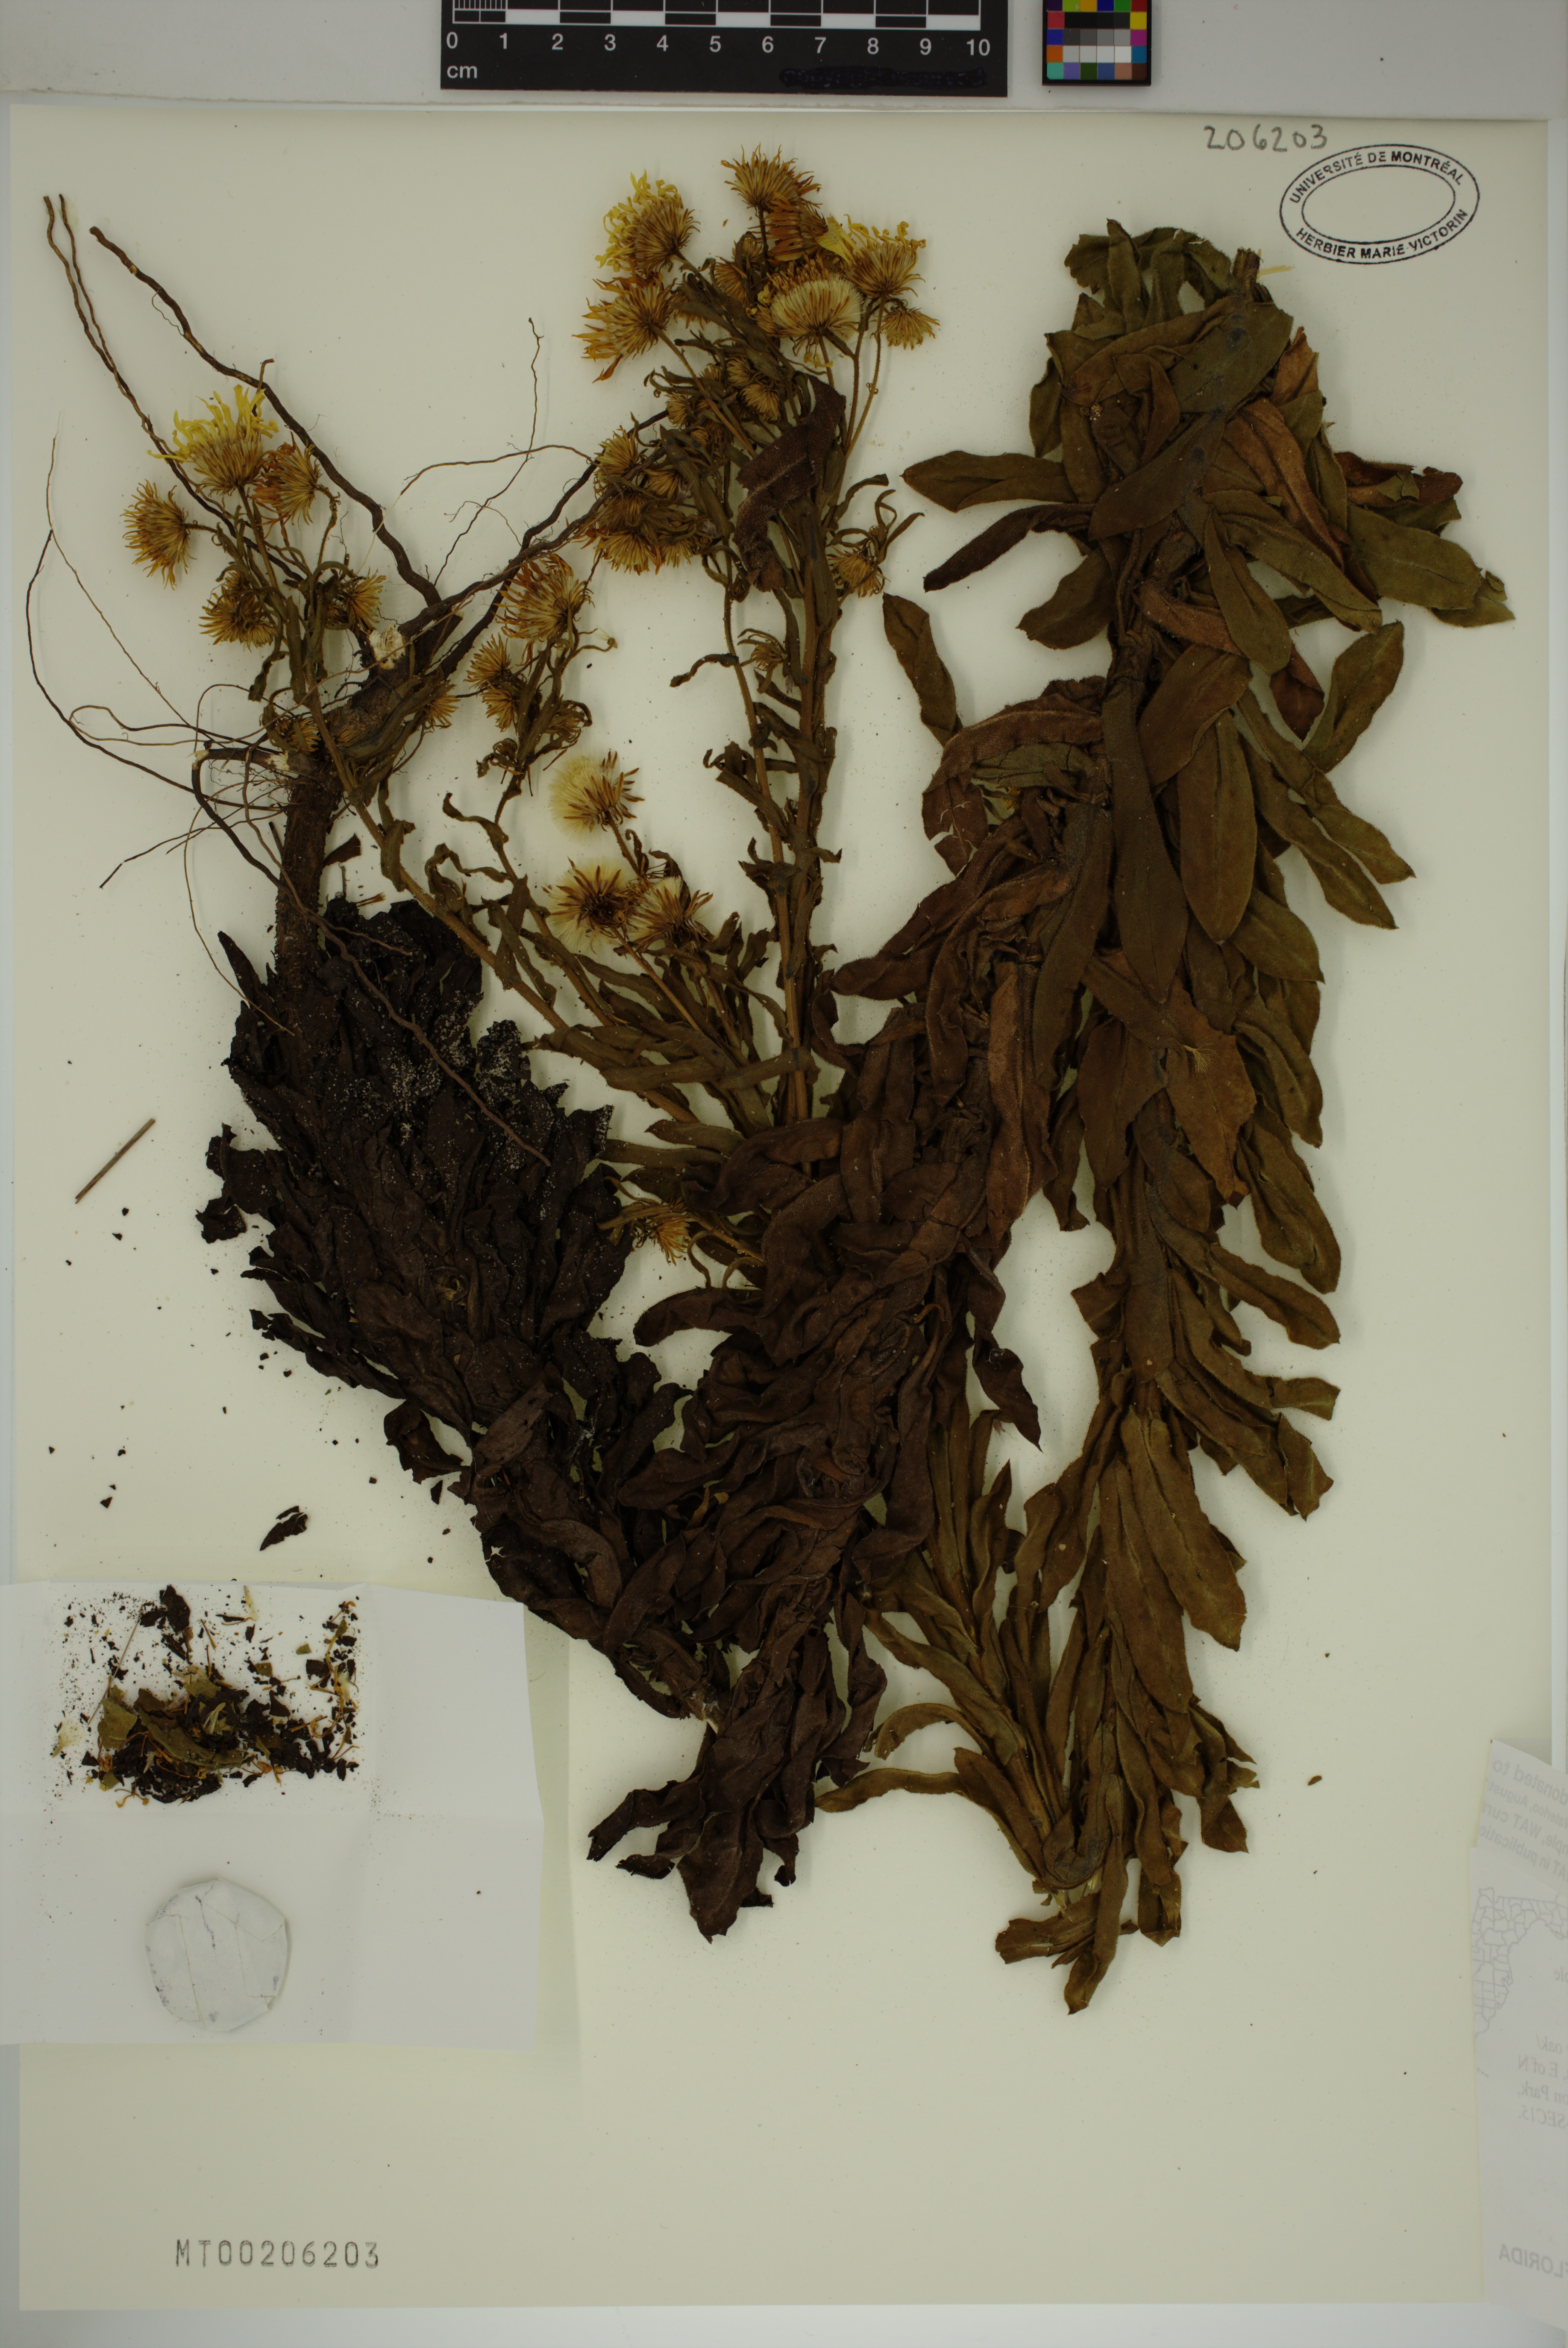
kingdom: Plantae
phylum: Tracheophyta
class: Magnoliopsida
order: Asterales
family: Asteraceae
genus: Chrysopsis
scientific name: Chrysopsis delaneyi
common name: Delaney's goldenaster
